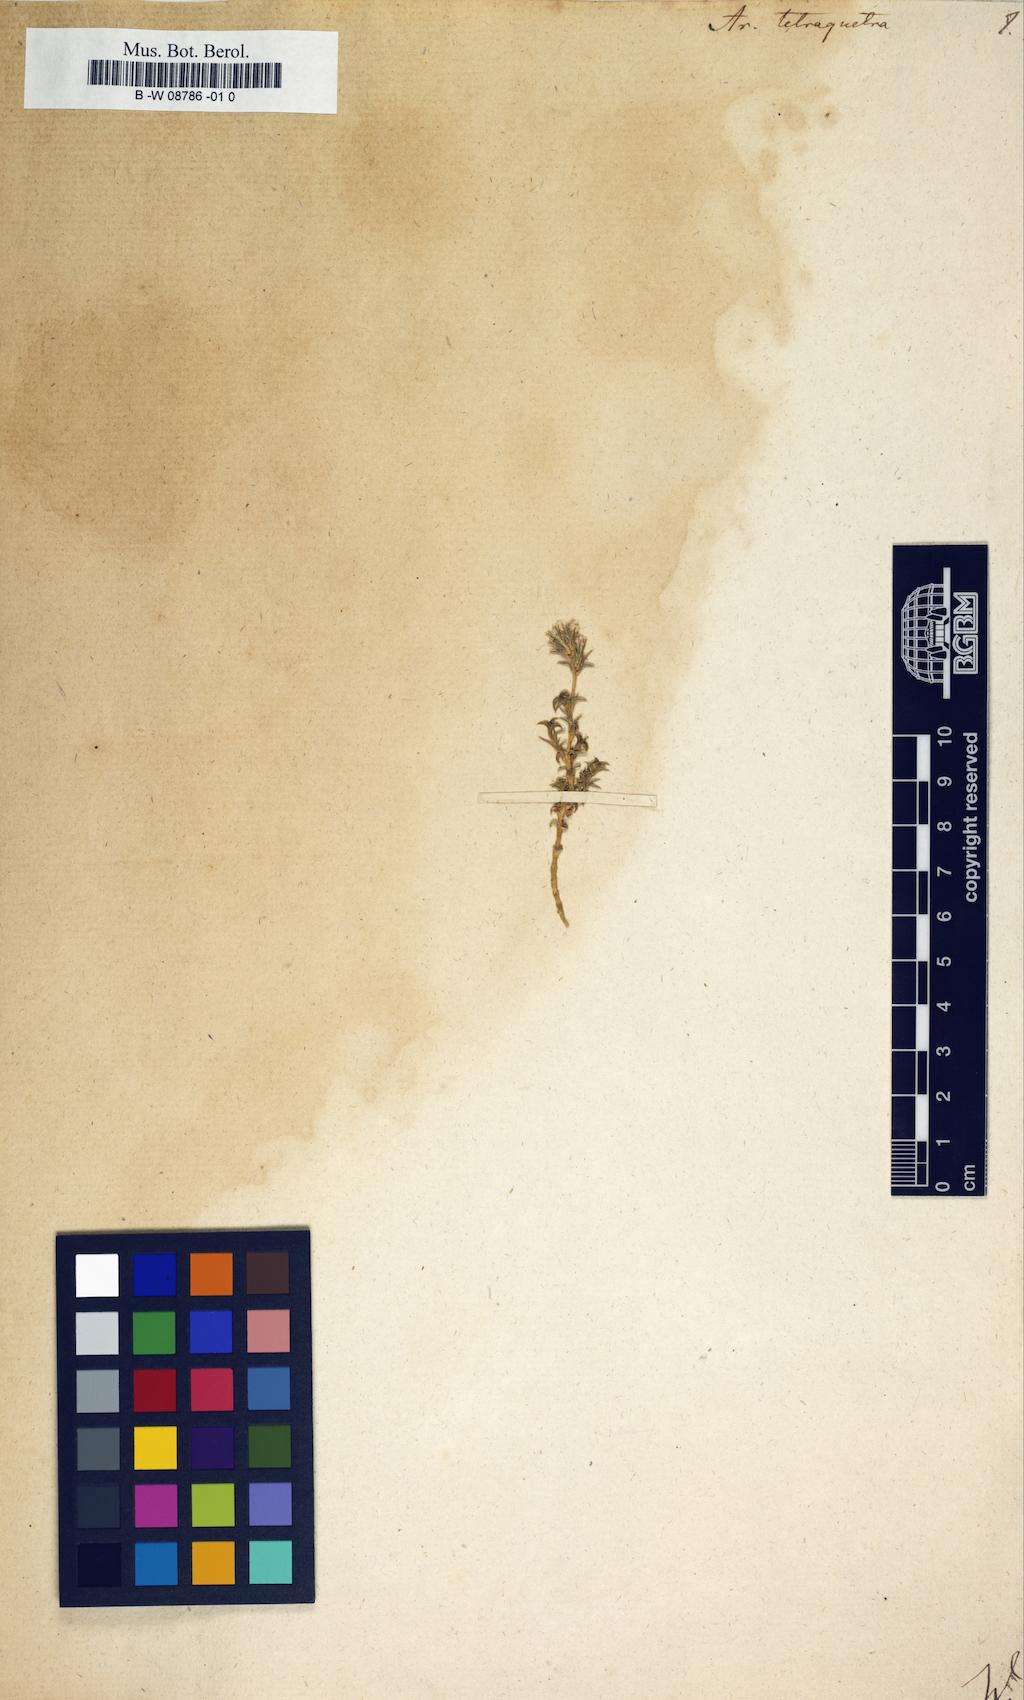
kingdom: Plantae
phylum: Tracheophyta
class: Magnoliopsida
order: Caryophyllales
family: Caryophyllaceae
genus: Arenaria
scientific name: Arenaria tetraquetra
